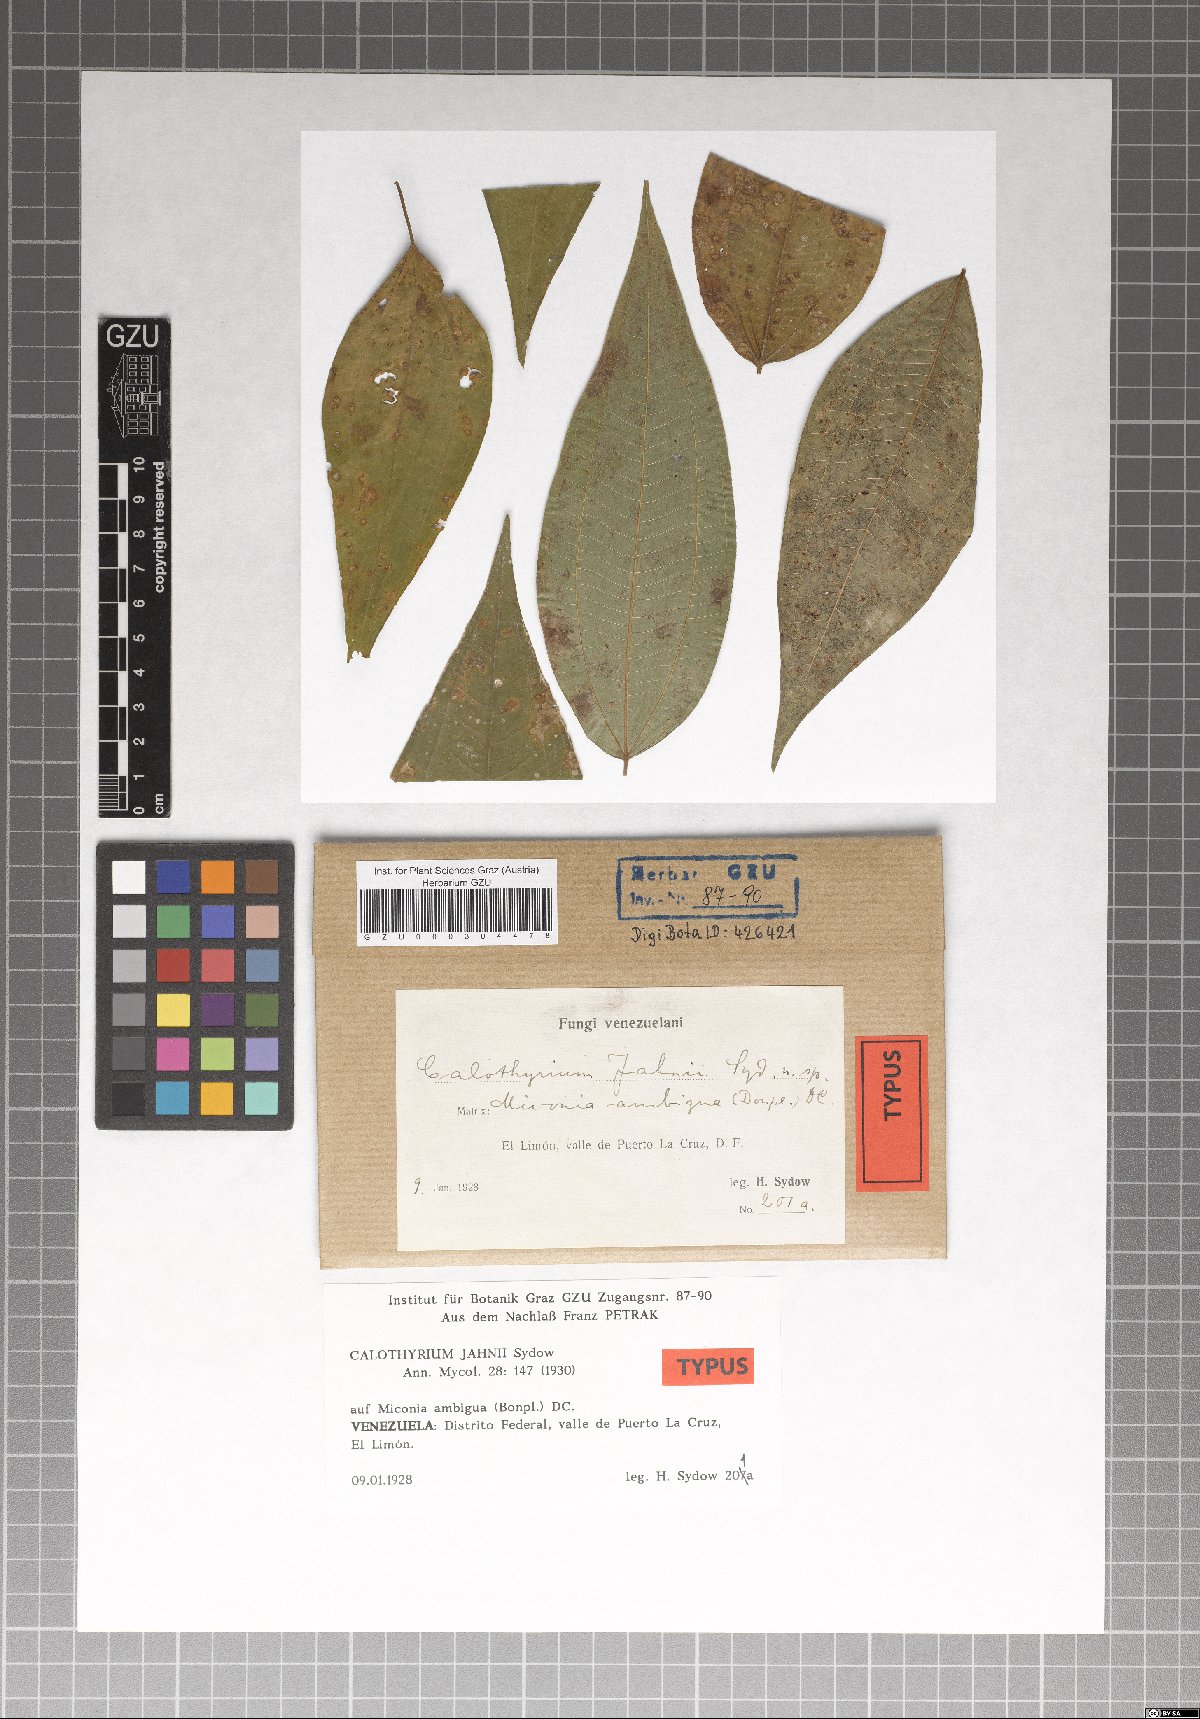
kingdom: Fungi
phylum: Ascomycota
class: Dothideomycetes
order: Microthyriales
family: Microthyriaceae
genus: Calothyrium
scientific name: Calothyrium jahnii
